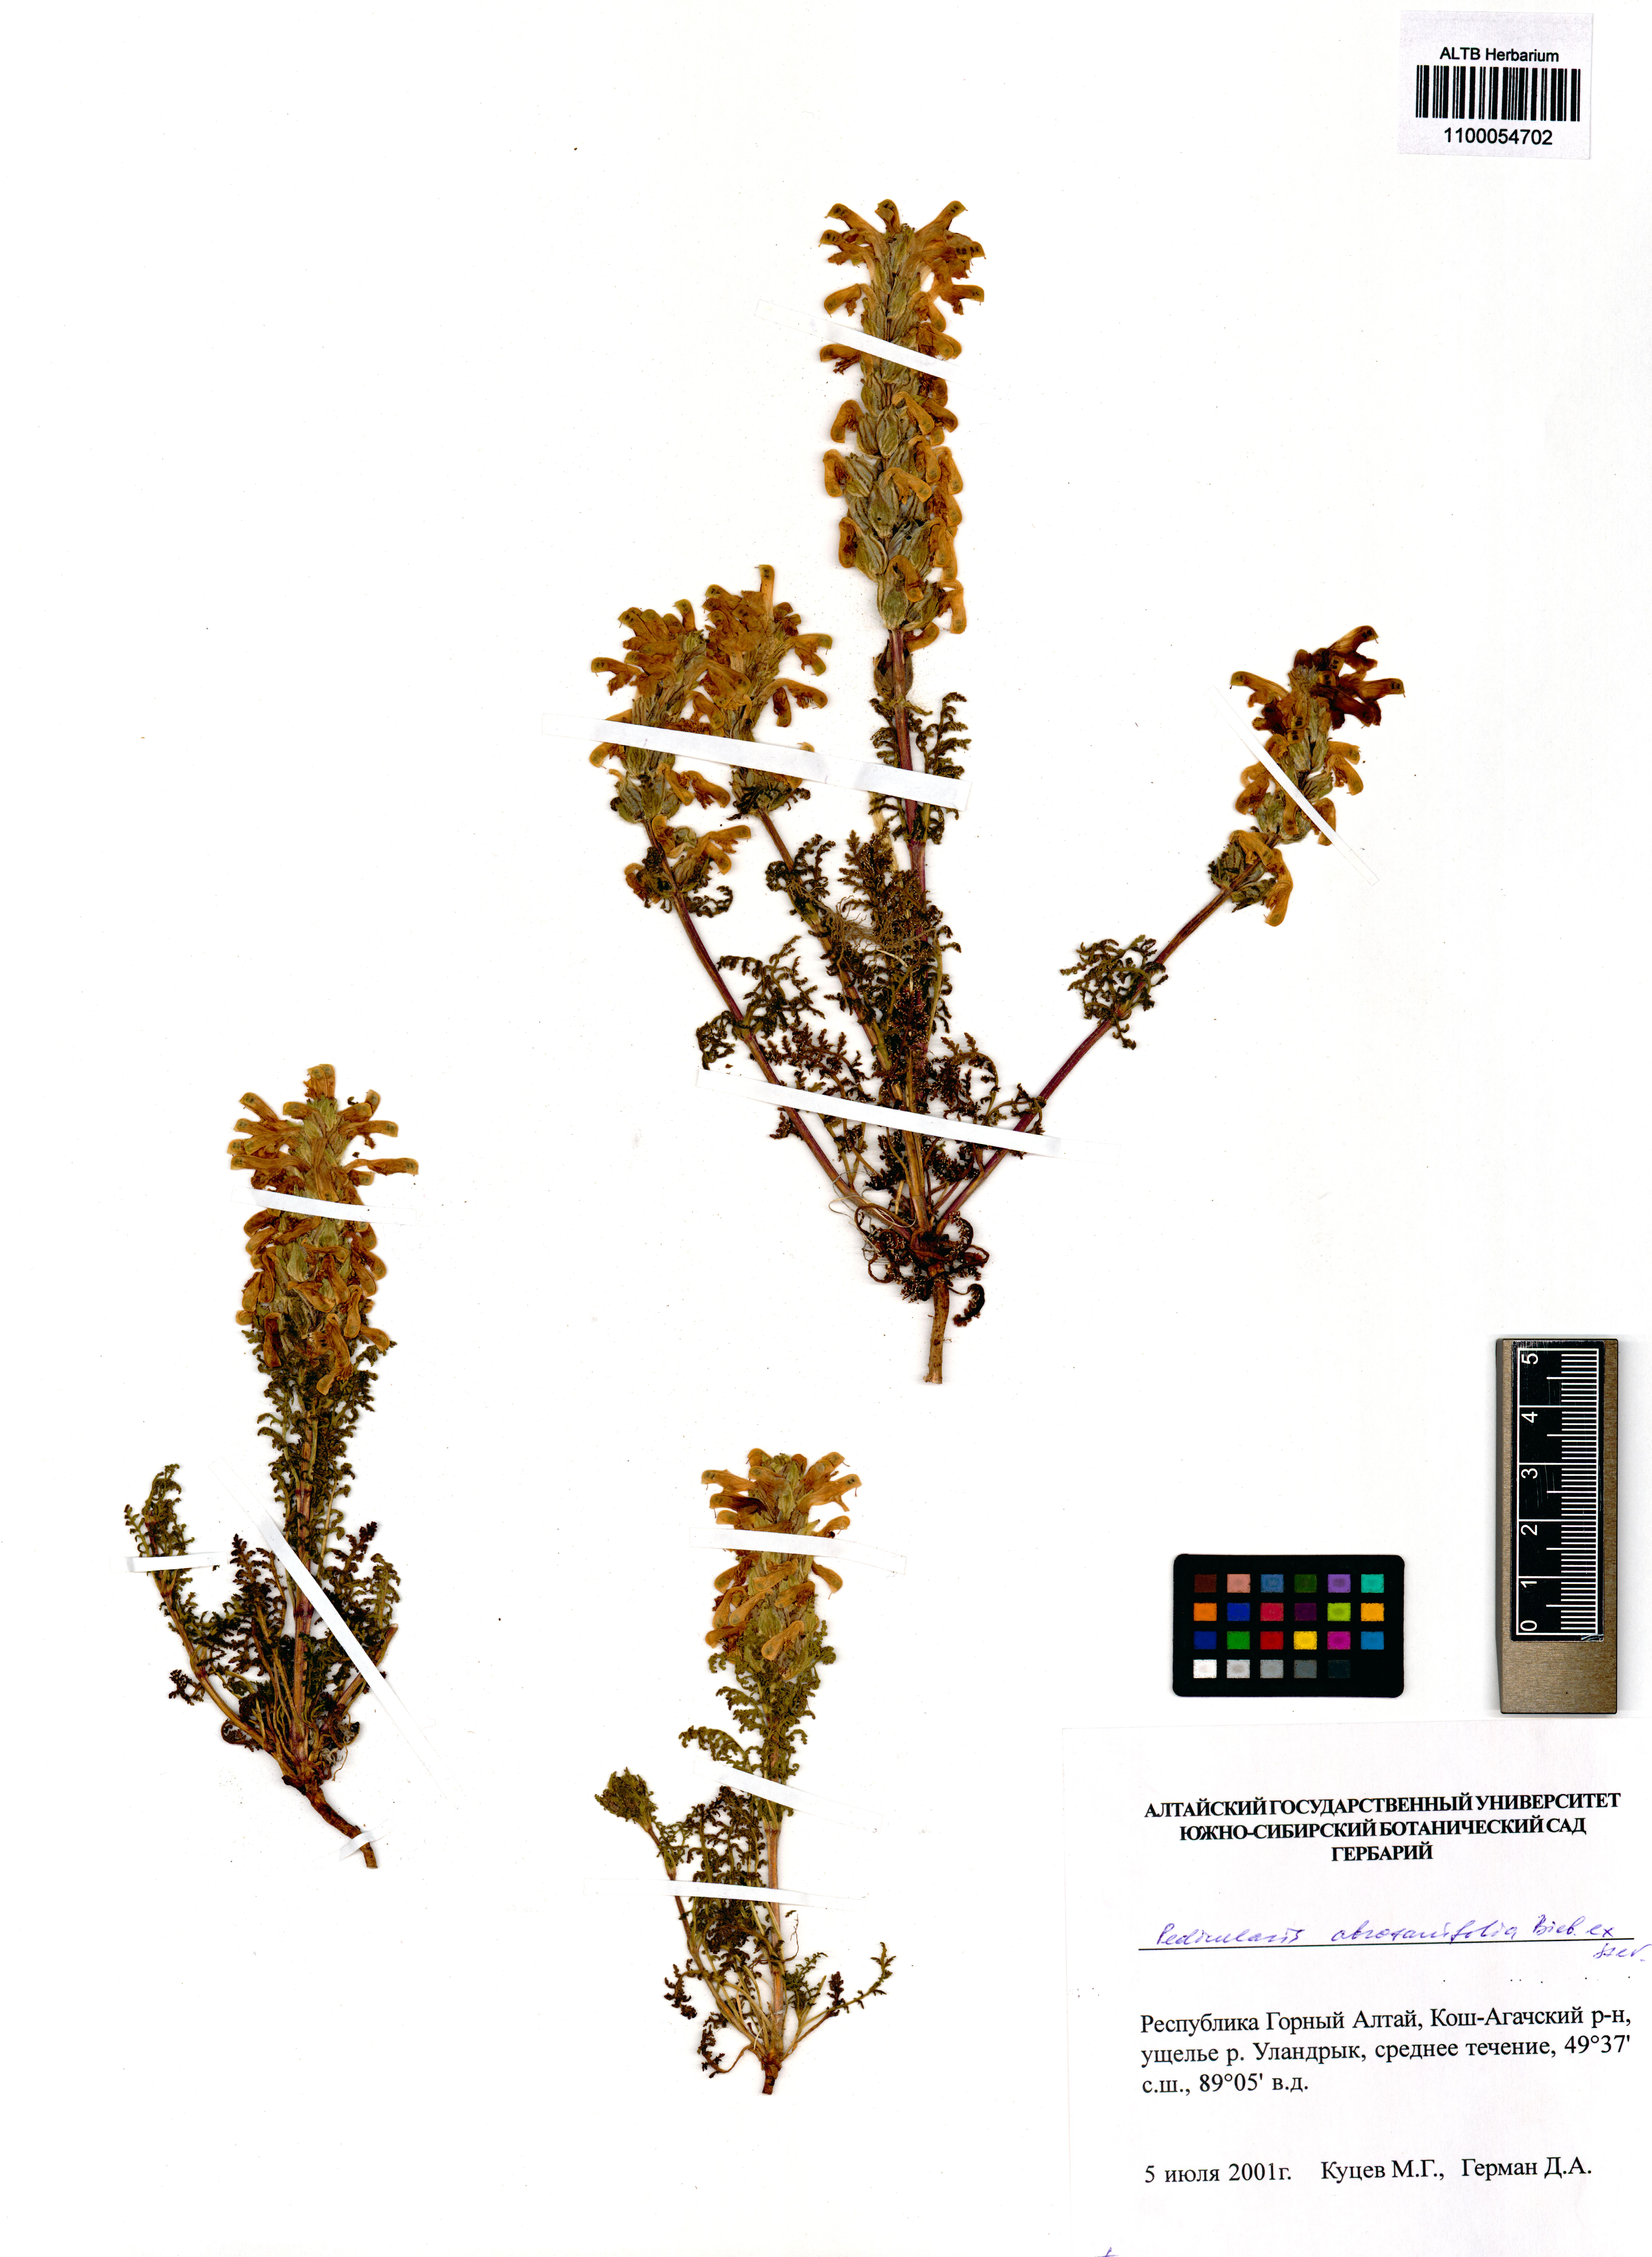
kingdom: Plantae
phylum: Tracheophyta
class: Magnoliopsida
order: Lamiales
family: Orobanchaceae
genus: Pedicularis
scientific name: Pedicularis abrotanifolia
